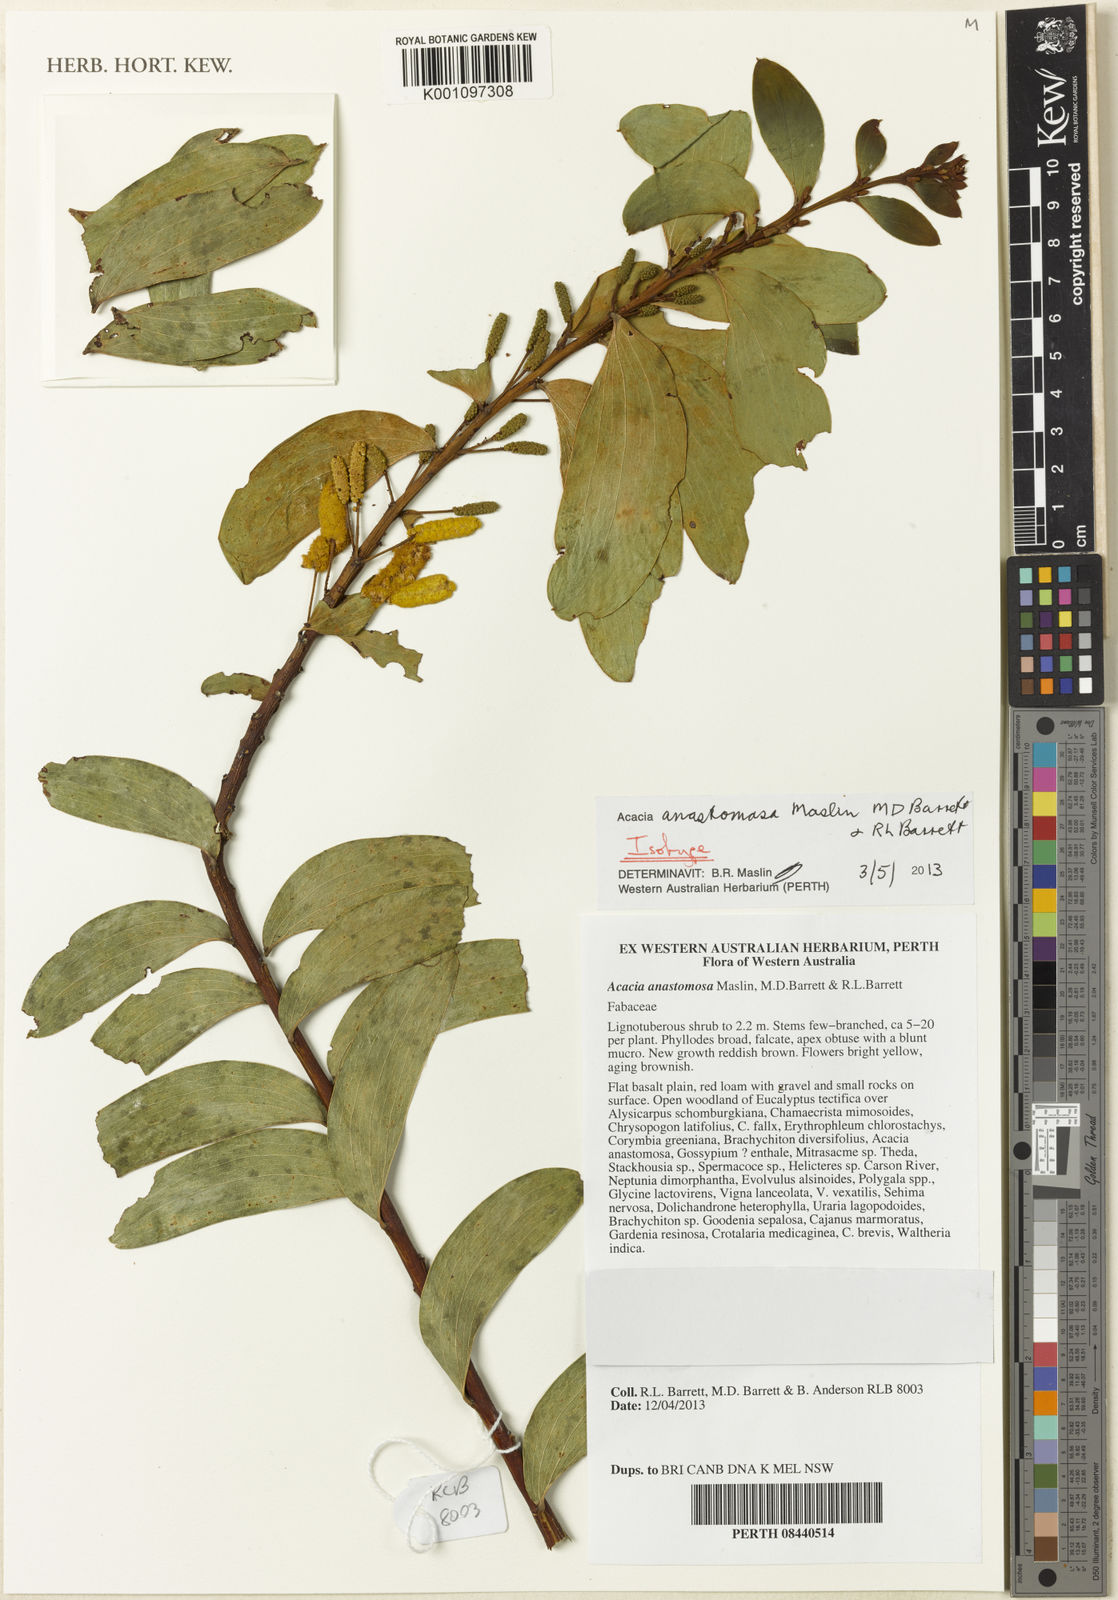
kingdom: Plantae
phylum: Tracheophyta
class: Magnoliopsida
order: Fabales
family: Fabaceae
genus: Acacia
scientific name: Acacia anastomosa
